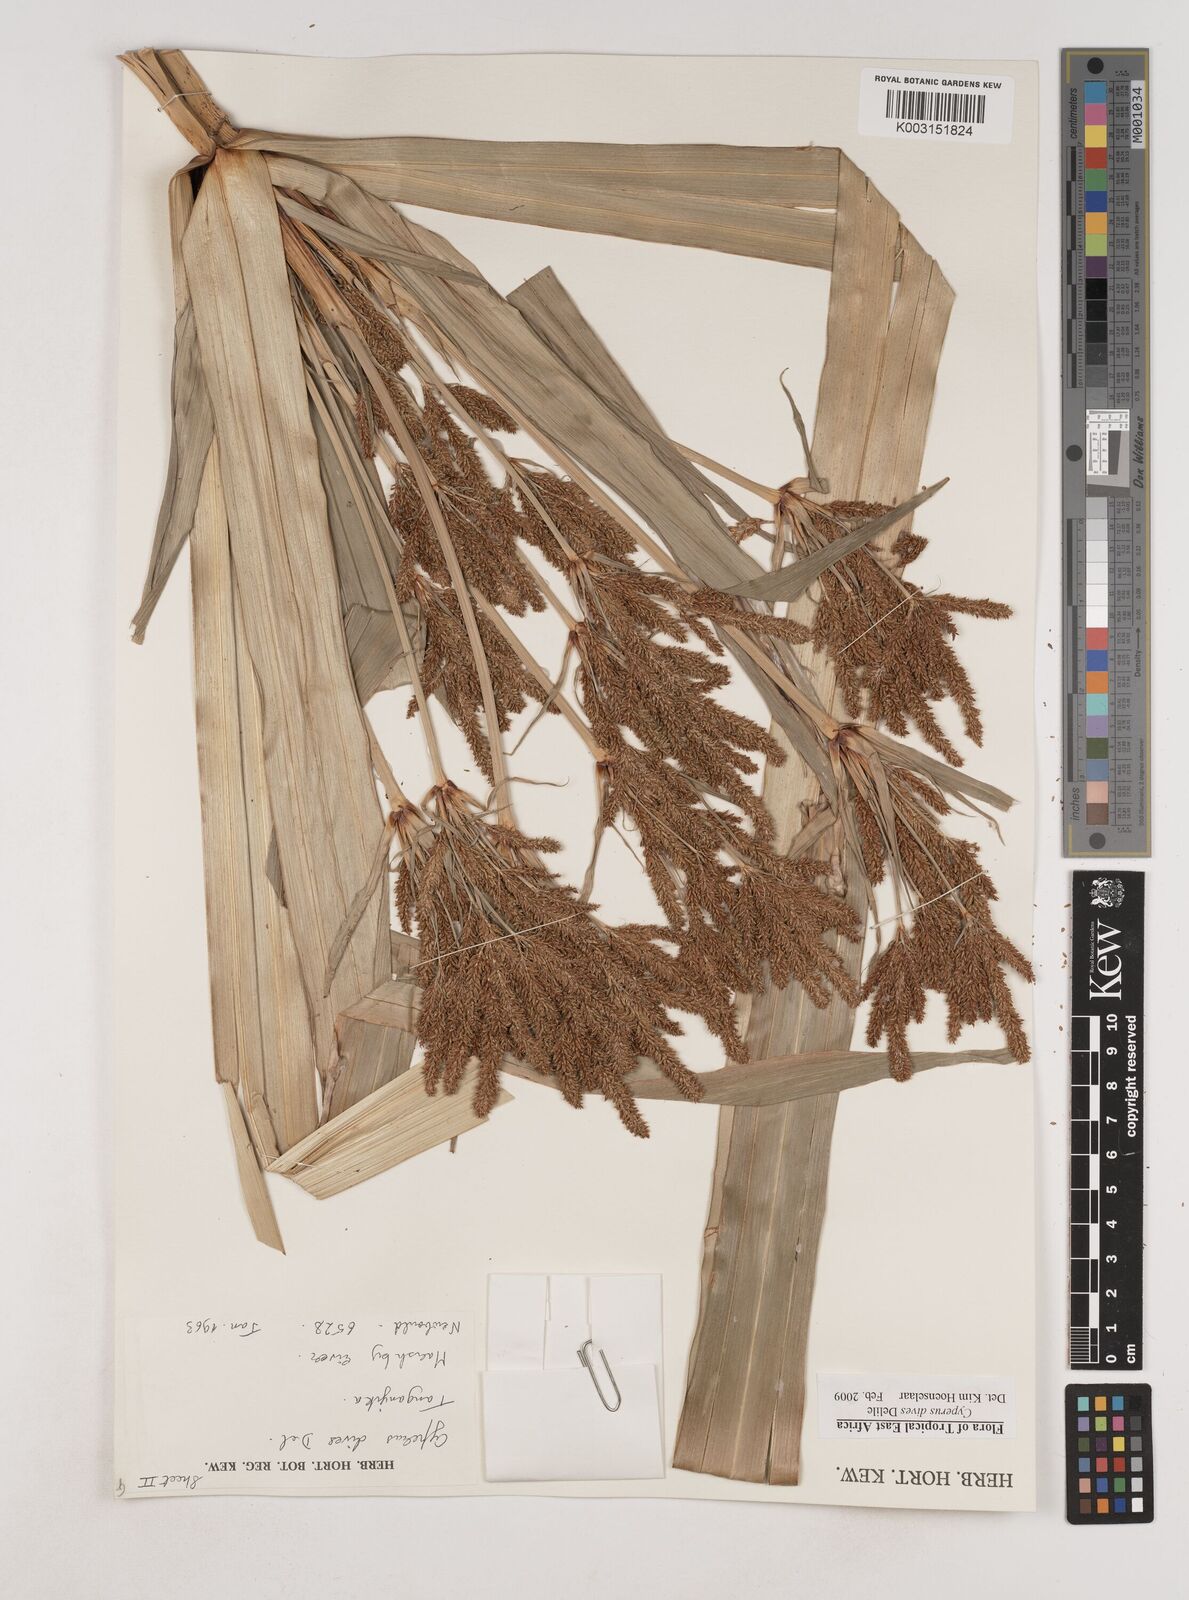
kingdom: Plantae
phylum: Tracheophyta
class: Liliopsida
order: Poales
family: Cyperaceae
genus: Cyperus
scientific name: Cyperus
